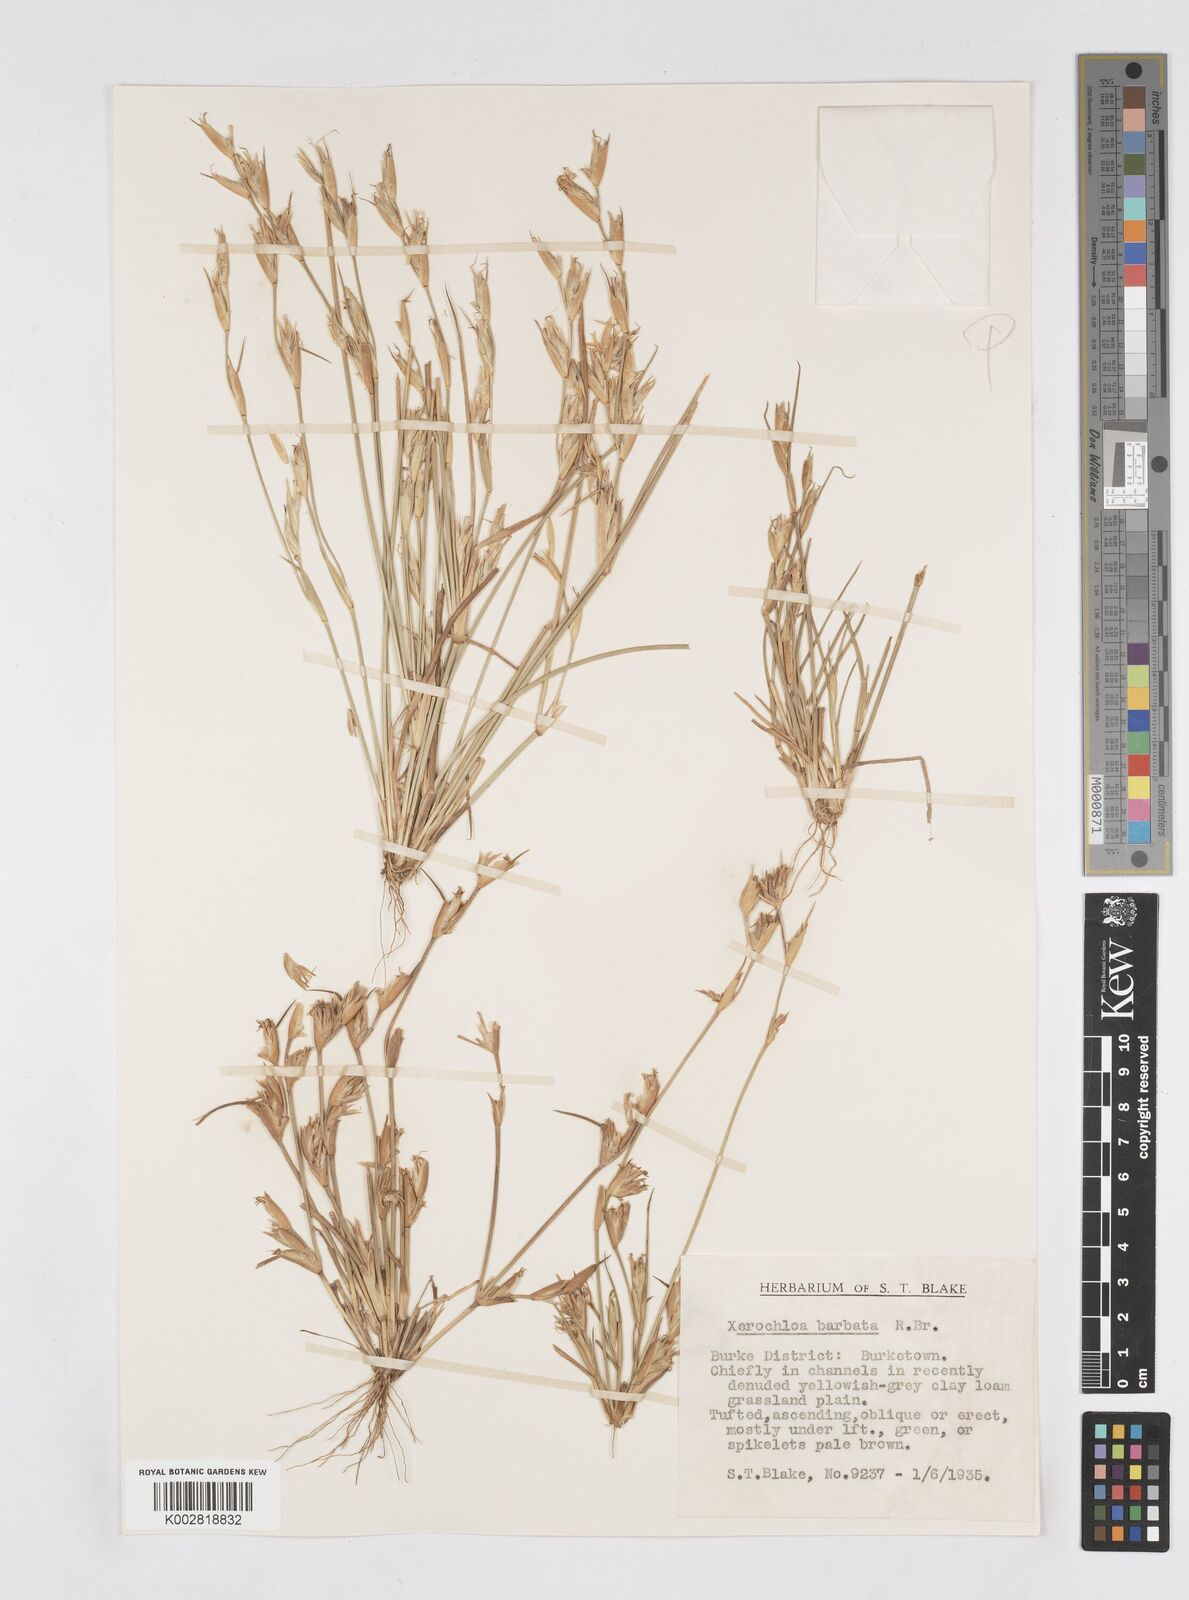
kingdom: Plantae
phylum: Tracheophyta
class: Liliopsida
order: Poales
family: Poaceae
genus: Xerochloa
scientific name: Xerochloa barbata
